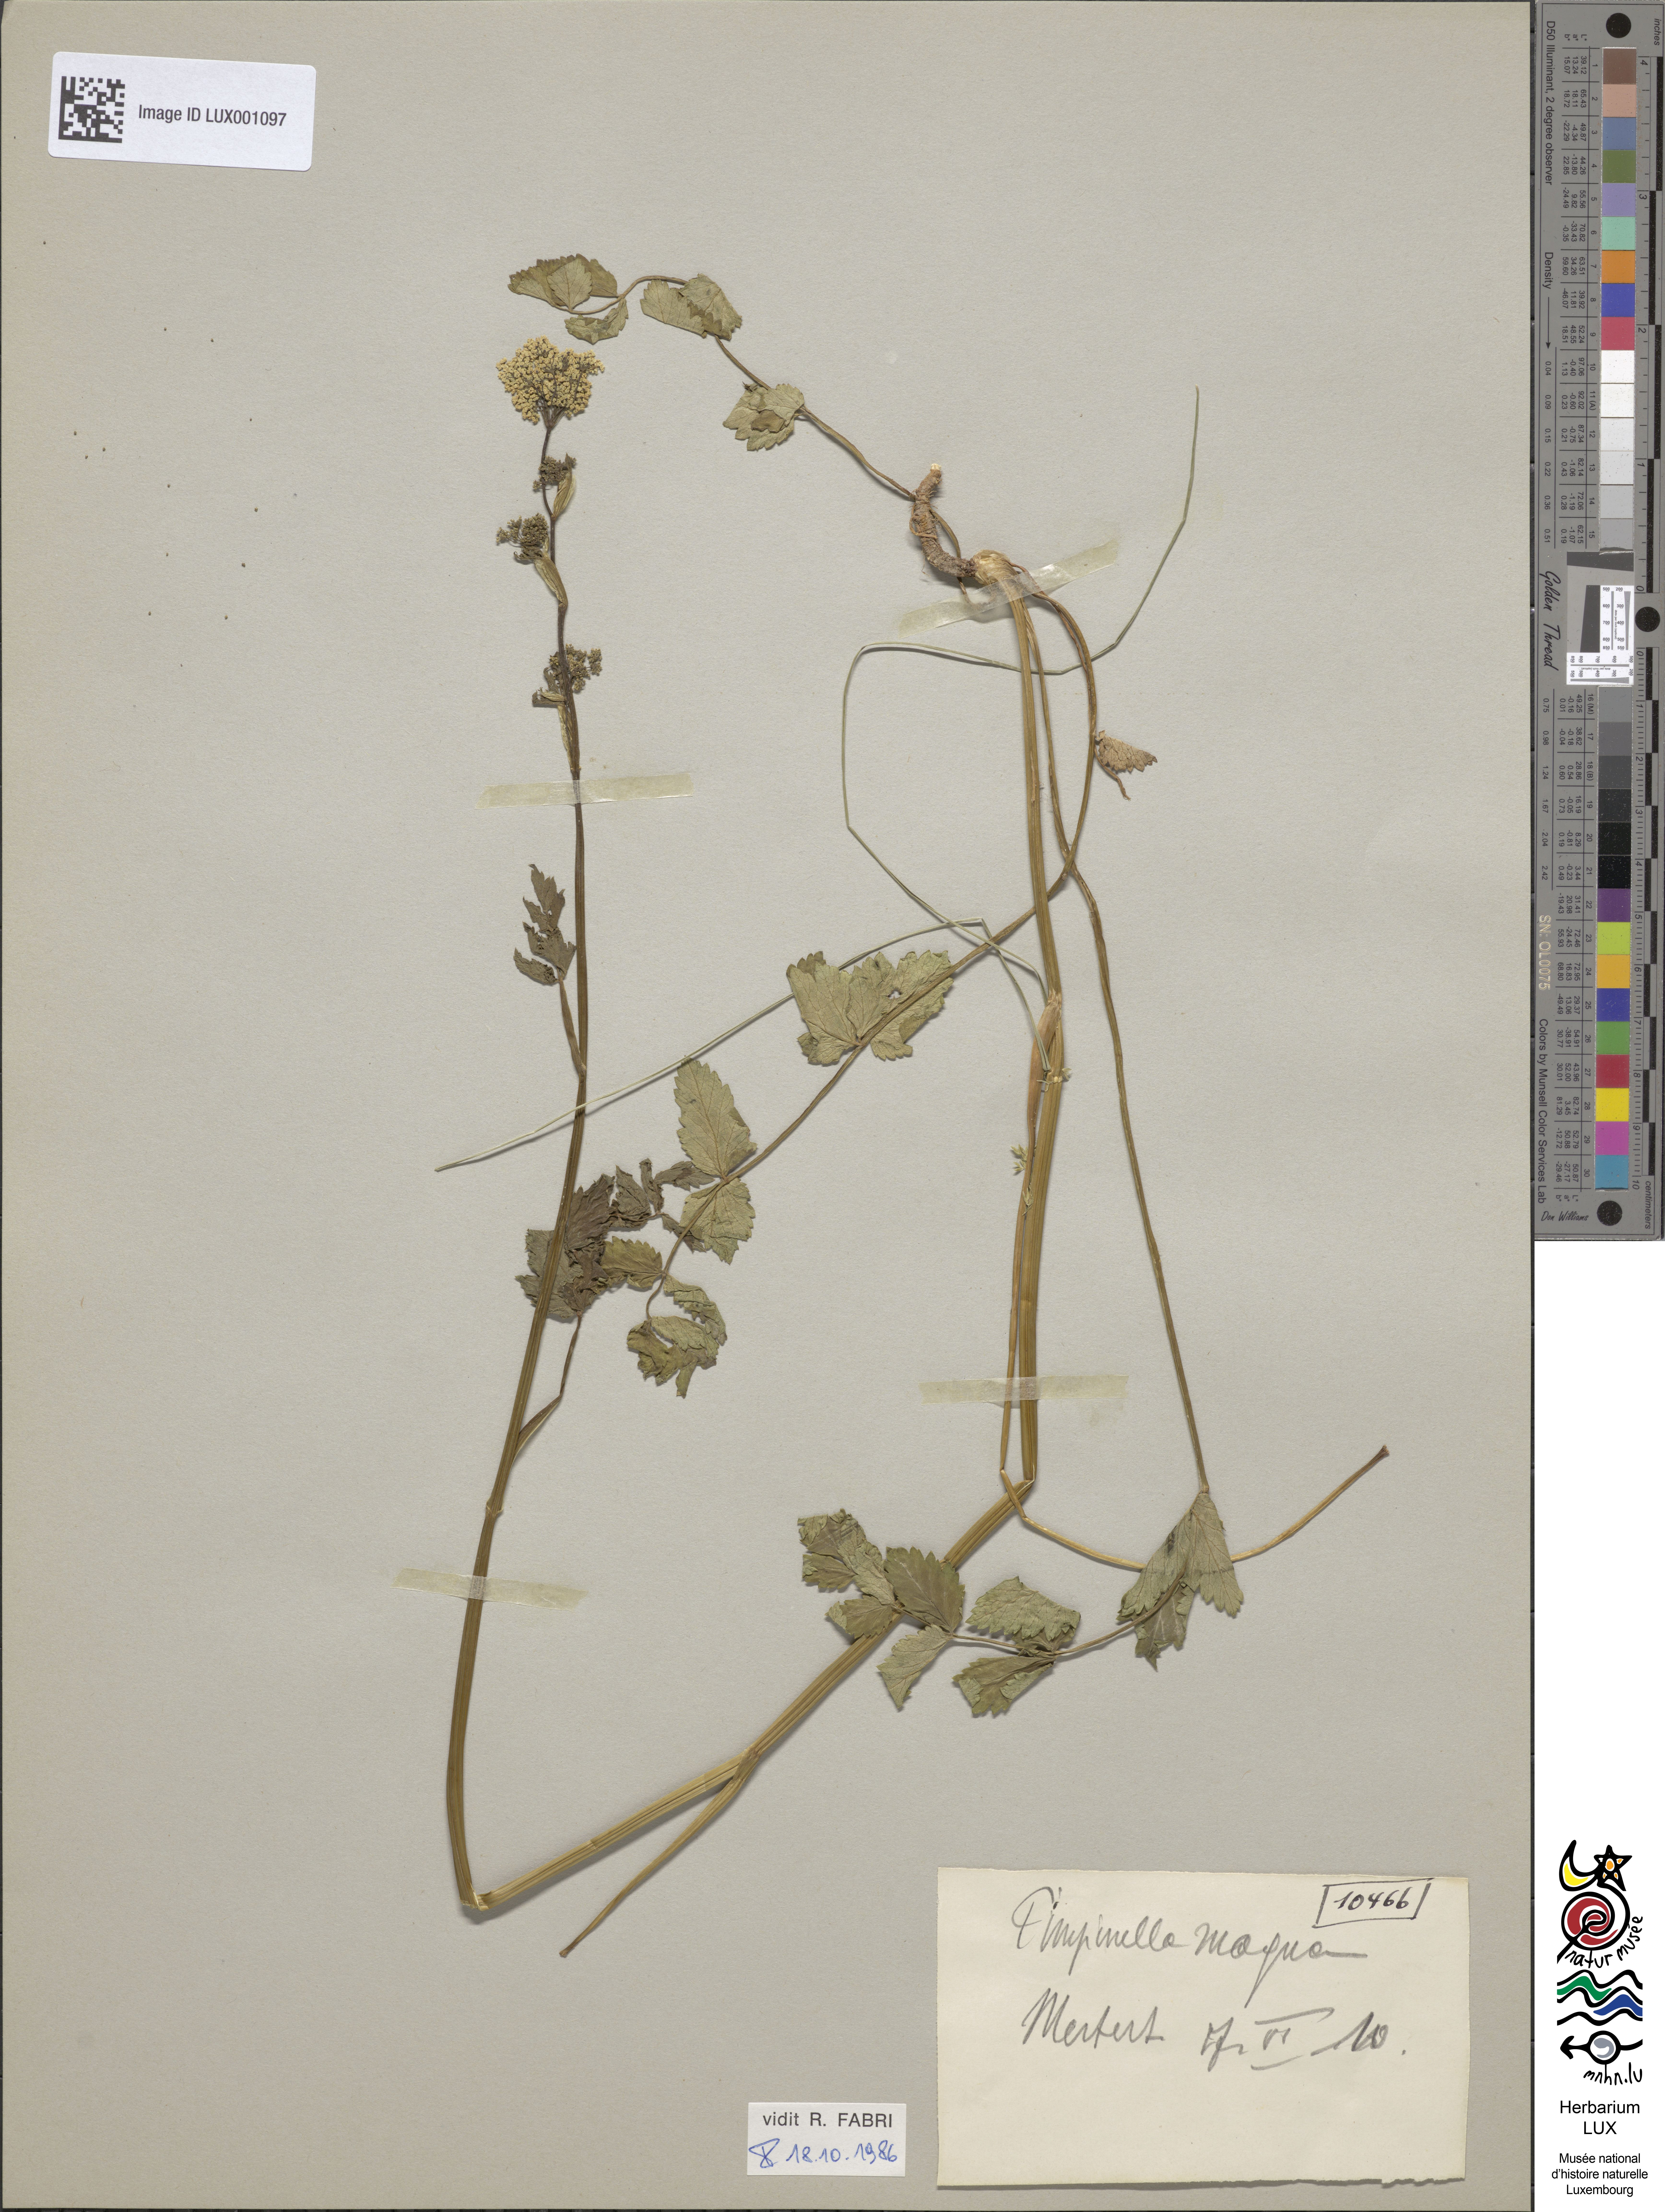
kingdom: Plantae
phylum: Tracheophyta
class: Magnoliopsida
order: Apiales
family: Apiaceae
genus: Pimpinella
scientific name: Pimpinella major
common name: Greater burnet-saxifrage
